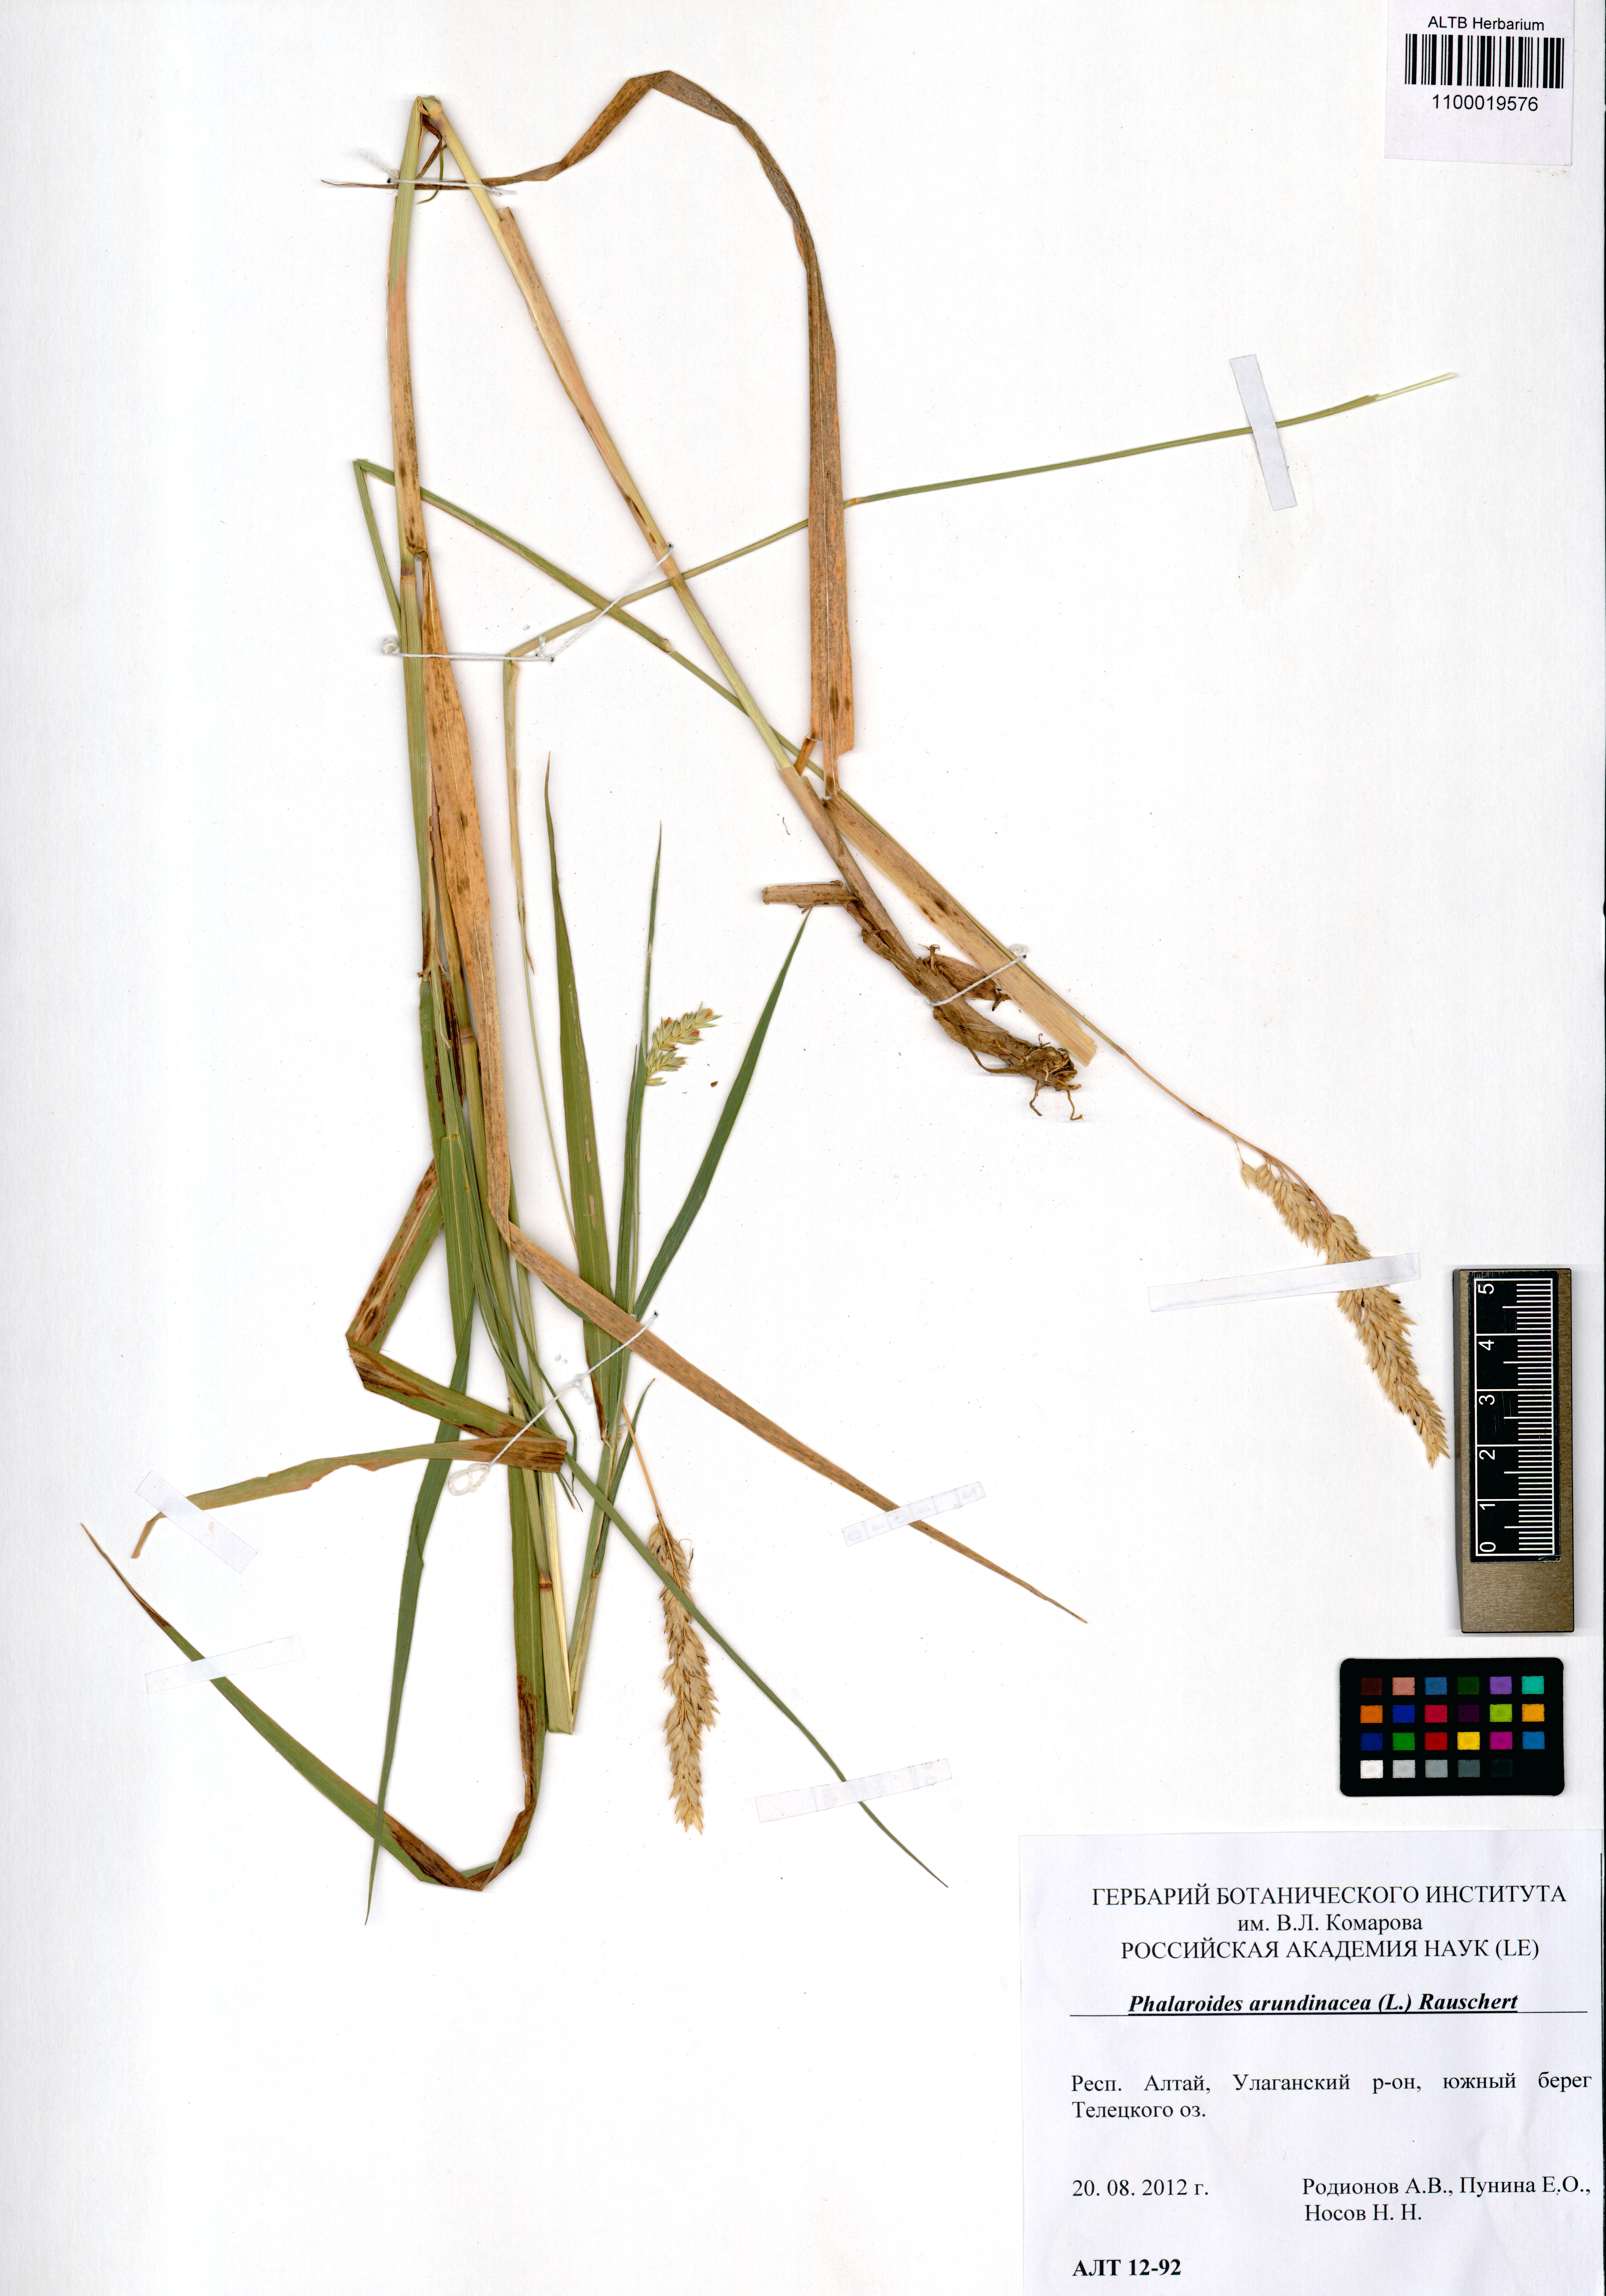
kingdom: Plantae
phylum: Tracheophyta
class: Liliopsida
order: Poales
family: Poaceae
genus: Phalaris
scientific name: Phalaris arundinacea
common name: Reed canary-grass
